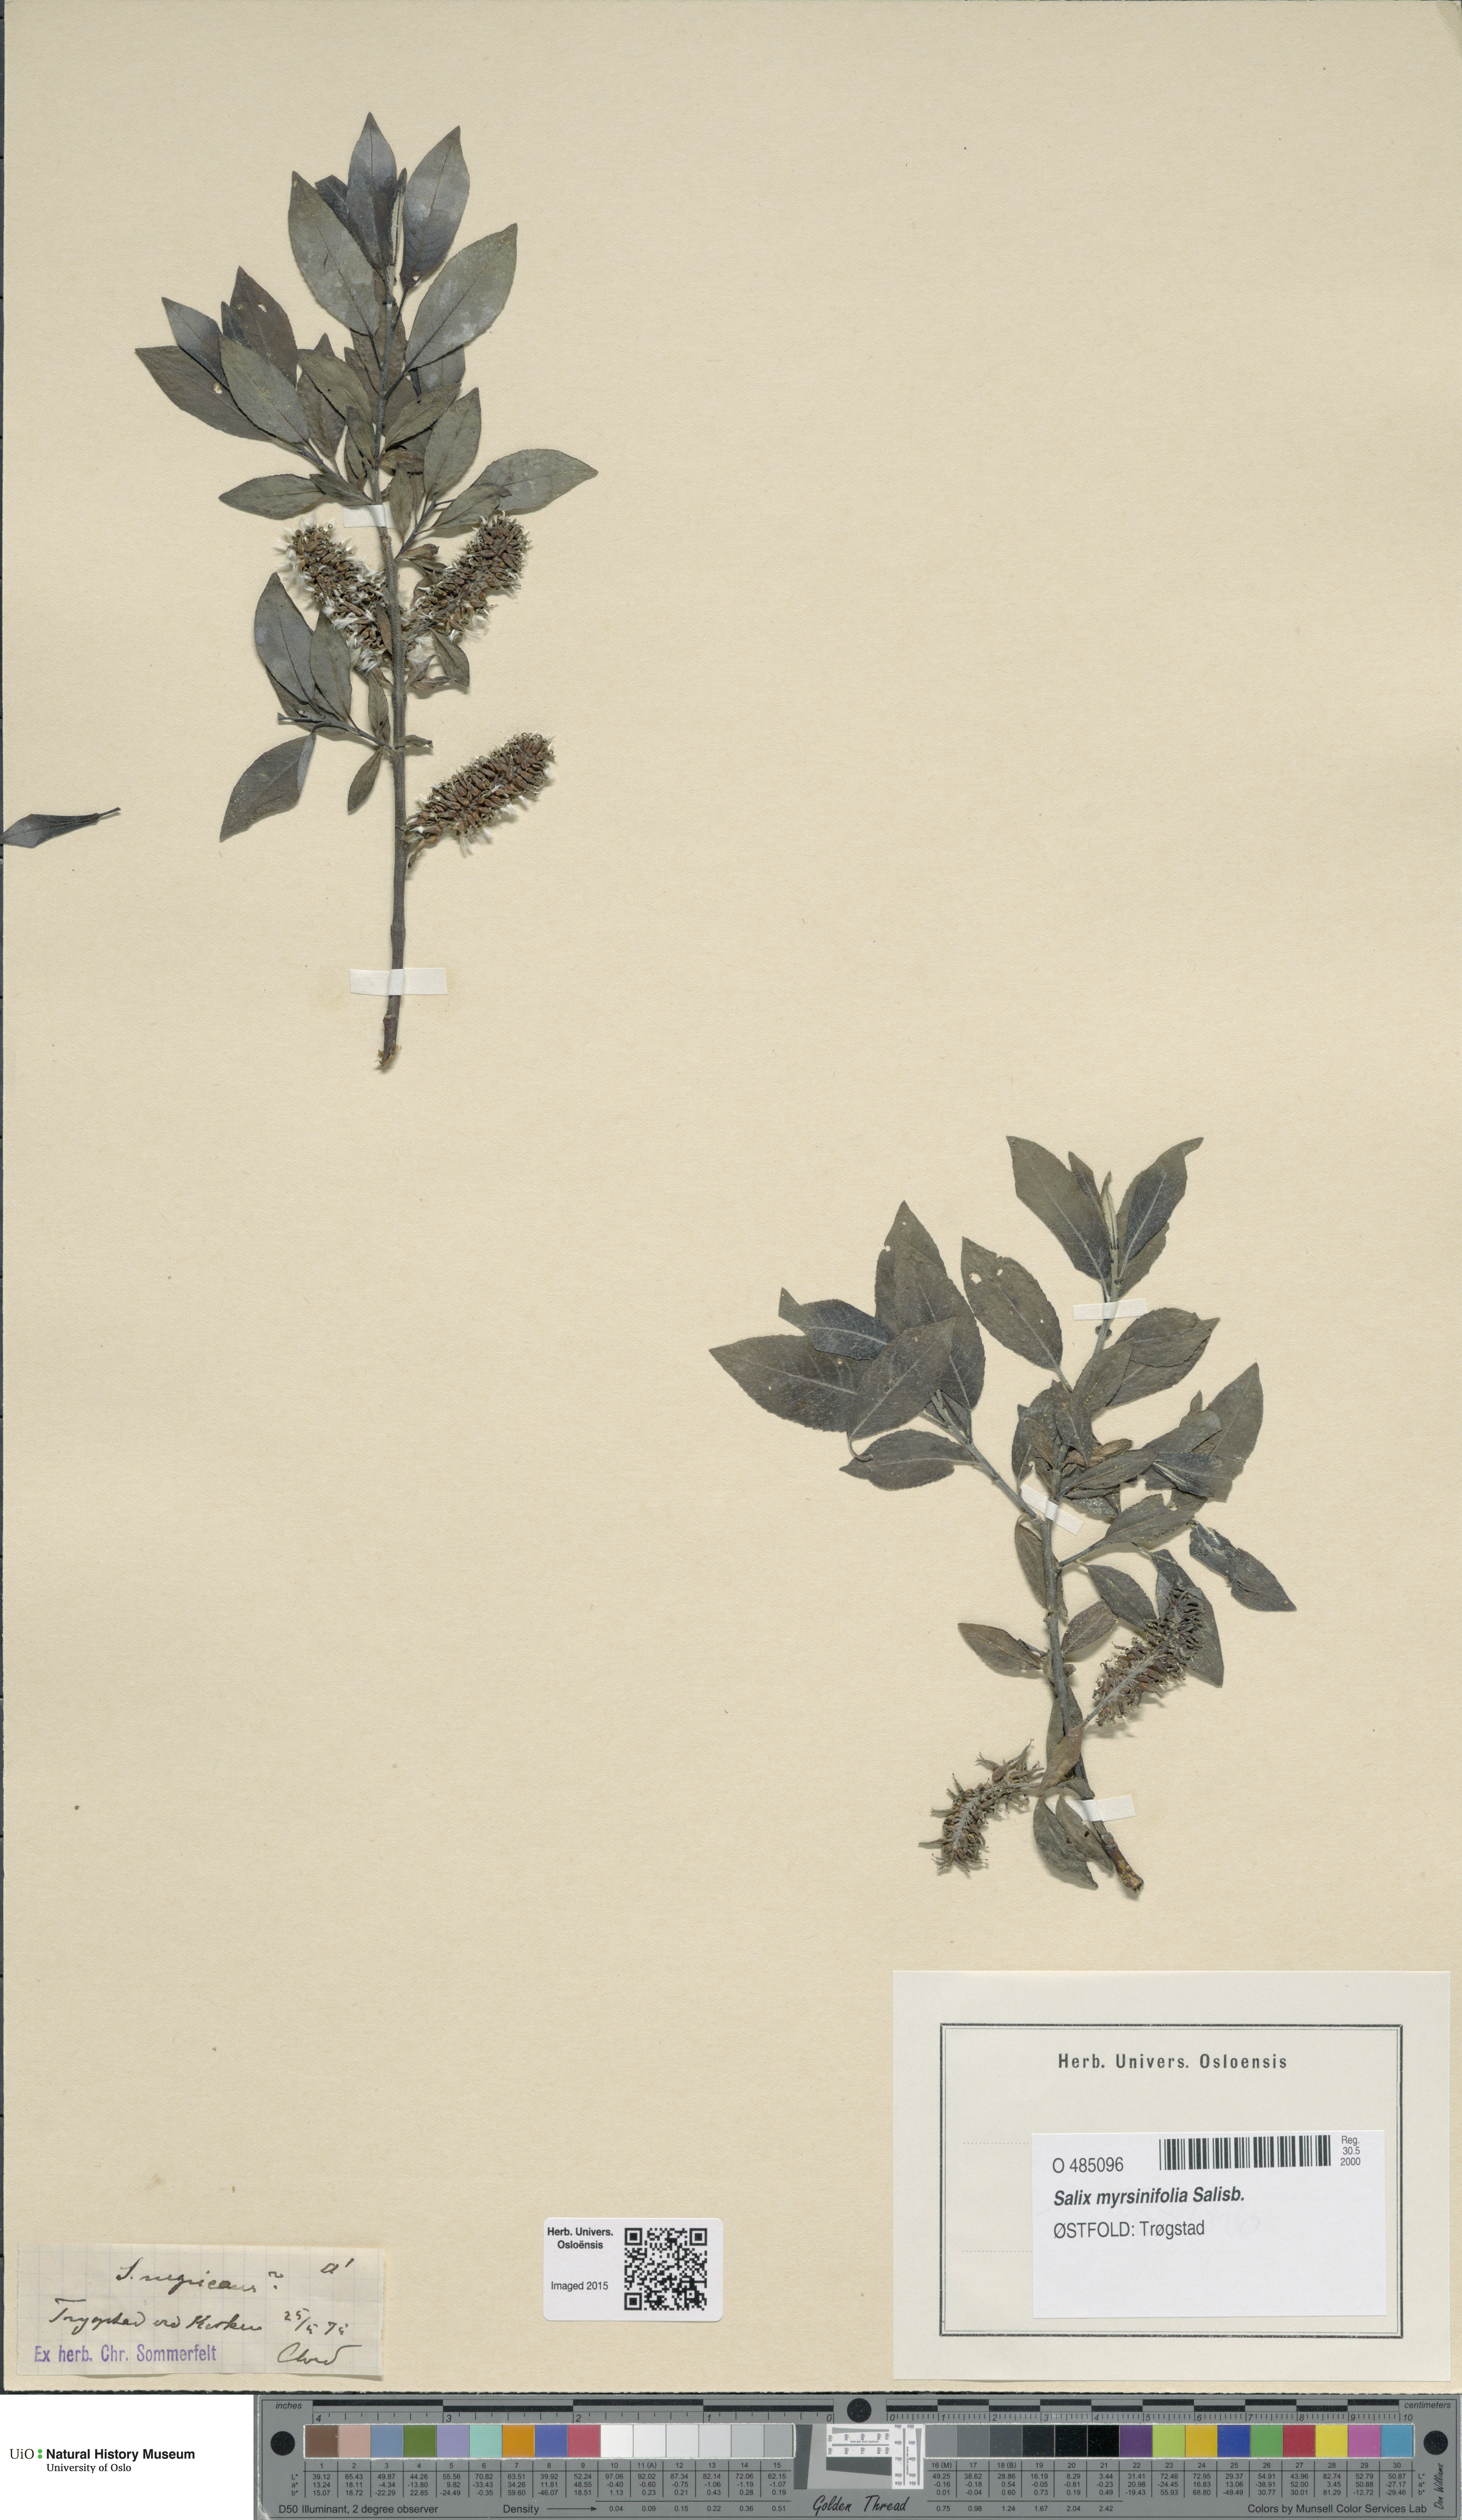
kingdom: Plantae
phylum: Tracheophyta
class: Magnoliopsida
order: Malpighiales
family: Salicaceae
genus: Salix
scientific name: Salix myrsinifolia
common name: Dark-leaved willow
